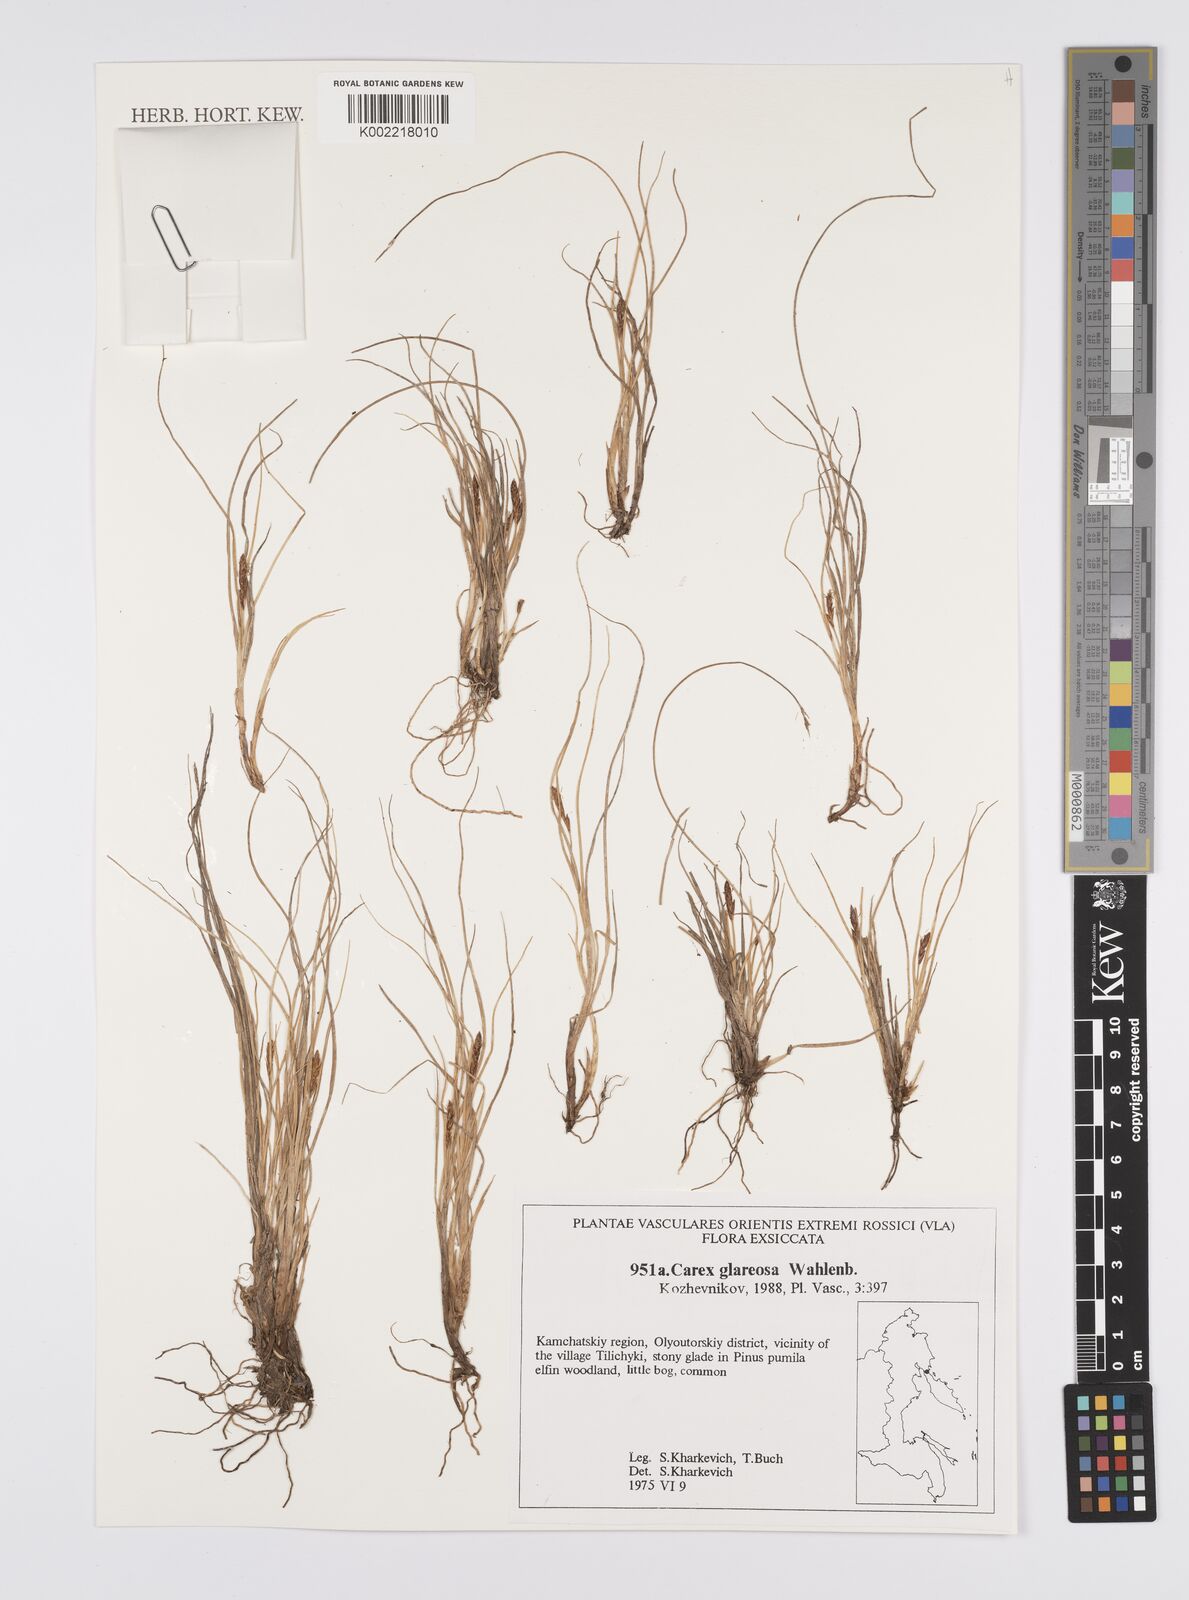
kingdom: Plantae
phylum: Tracheophyta
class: Liliopsida
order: Poales
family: Cyperaceae
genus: Carex
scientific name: Carex glareosa
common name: Clustered sedge
